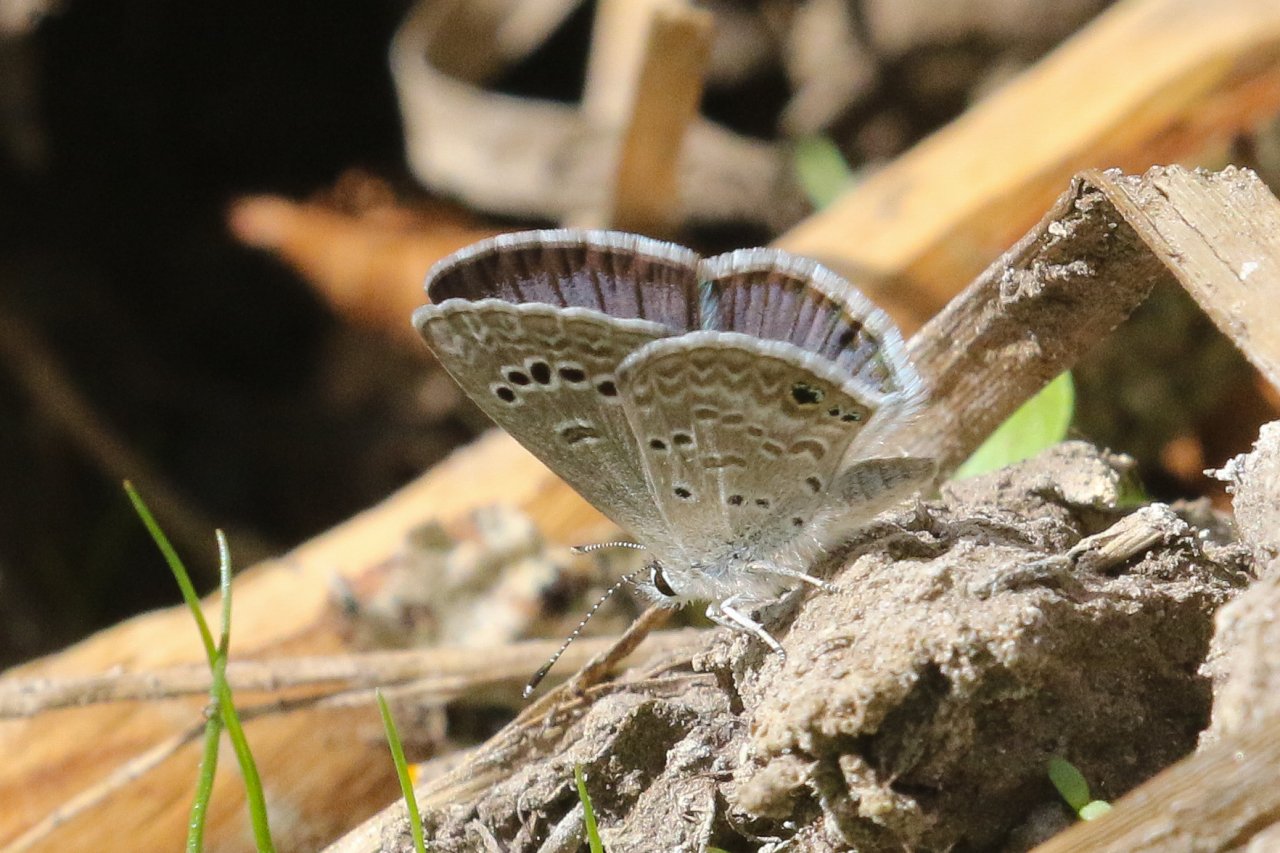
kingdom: Animalia
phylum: Arthropoda
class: Insecta
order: Lepidoptera
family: Lycaenidae
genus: Leptotes
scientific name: Leptotes marina
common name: Marine Blue
